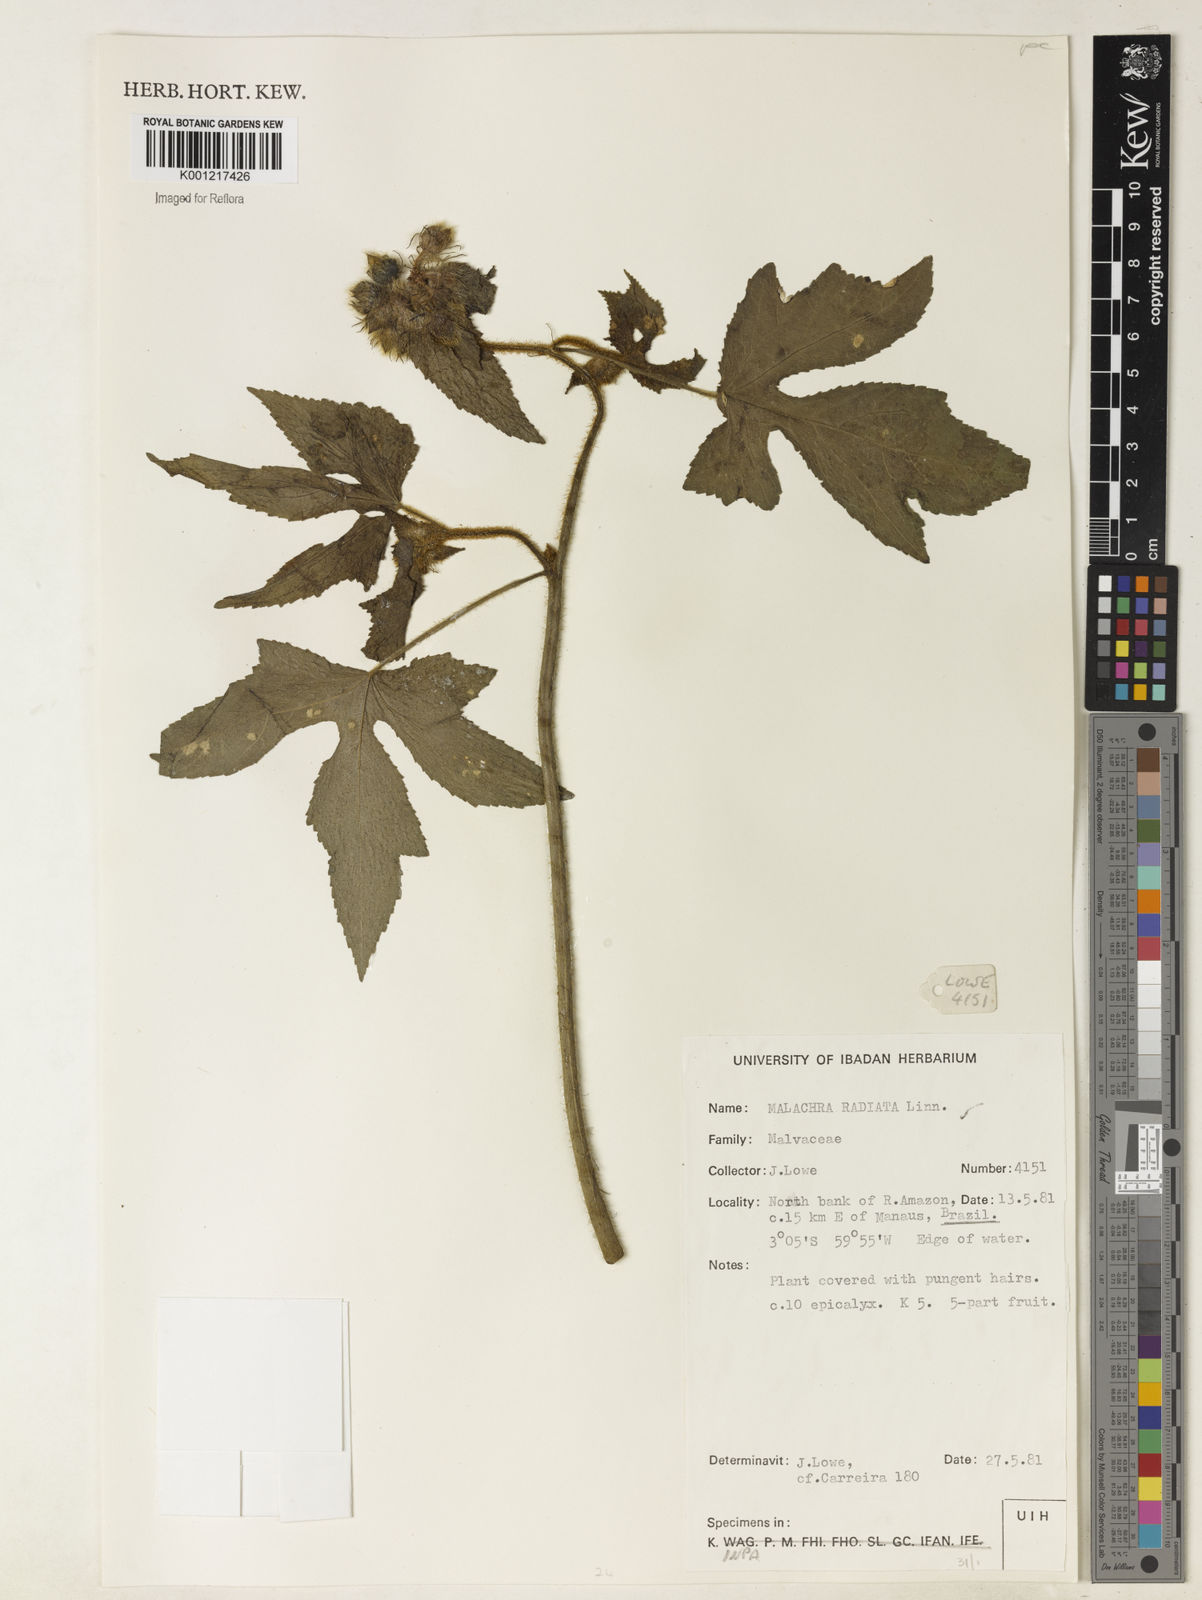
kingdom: Plantae
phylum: Tracheophyta
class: Magnoliopsida
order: Malvales
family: Malvaceae
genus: Malachra
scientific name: Malachra radiata
